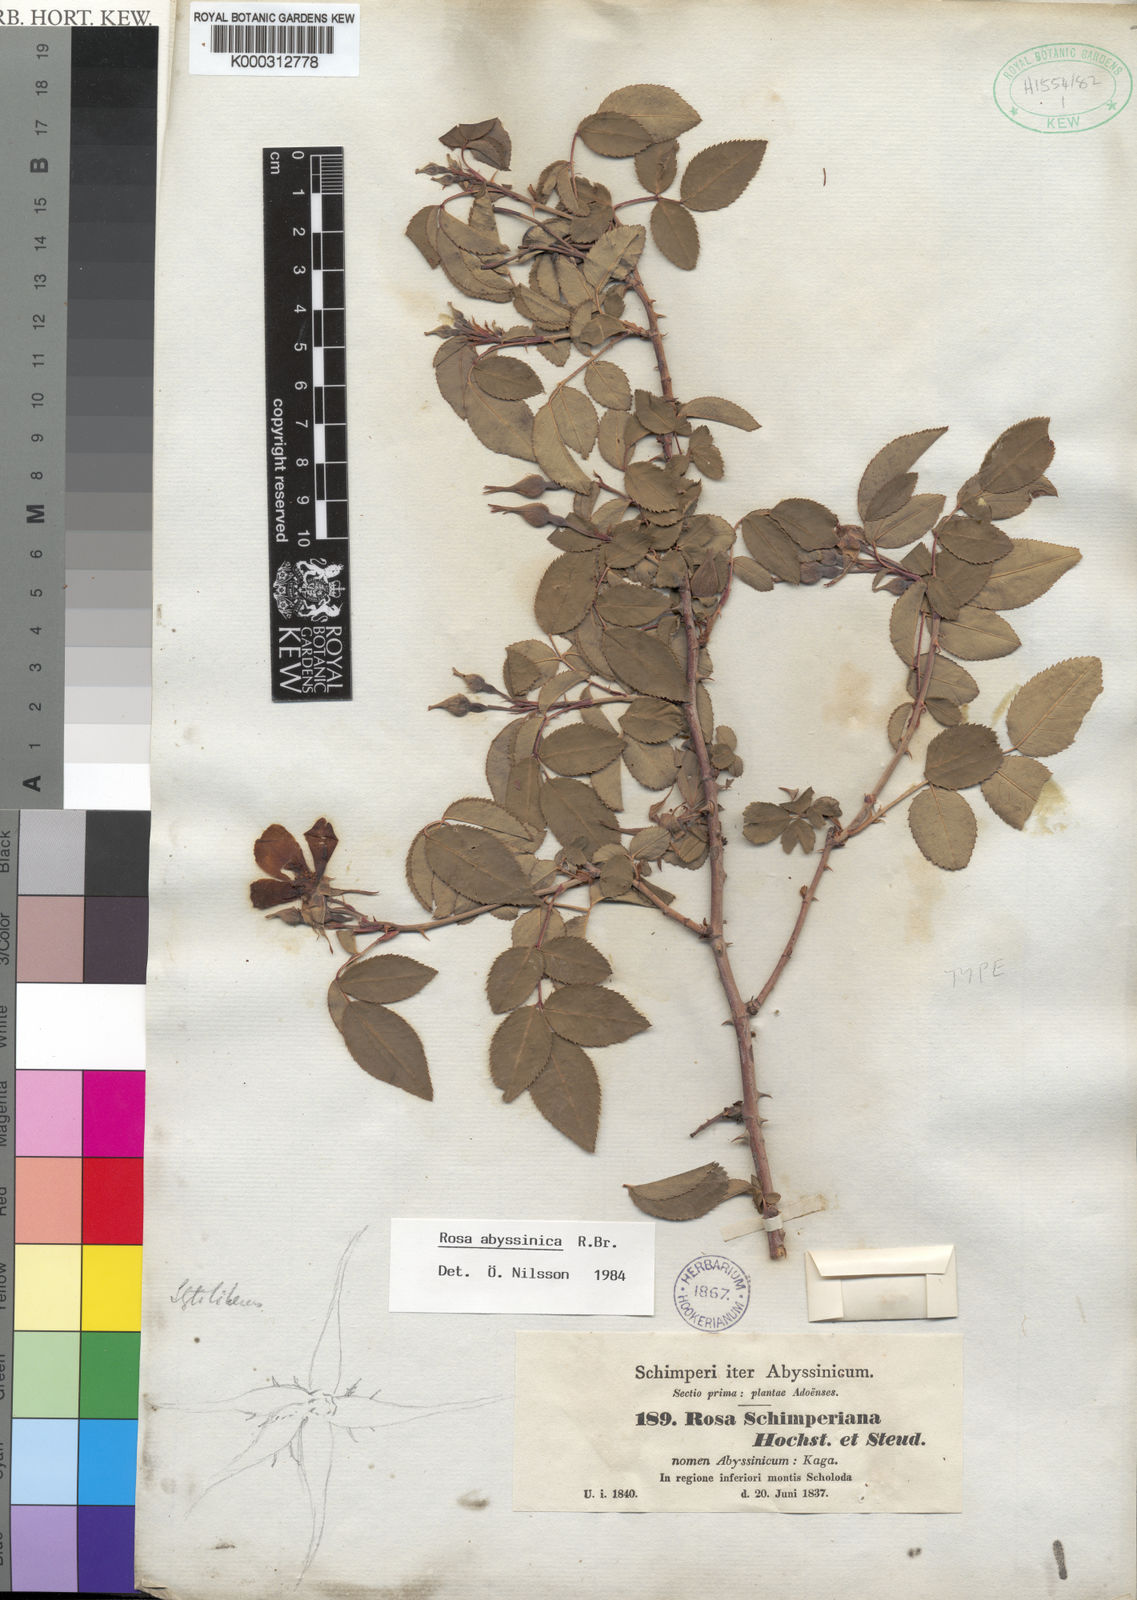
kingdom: Plantae
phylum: Tracheophyta
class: Magnoliopsida
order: Rosales
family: Rosaceae
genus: Rosa
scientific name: Rosa
